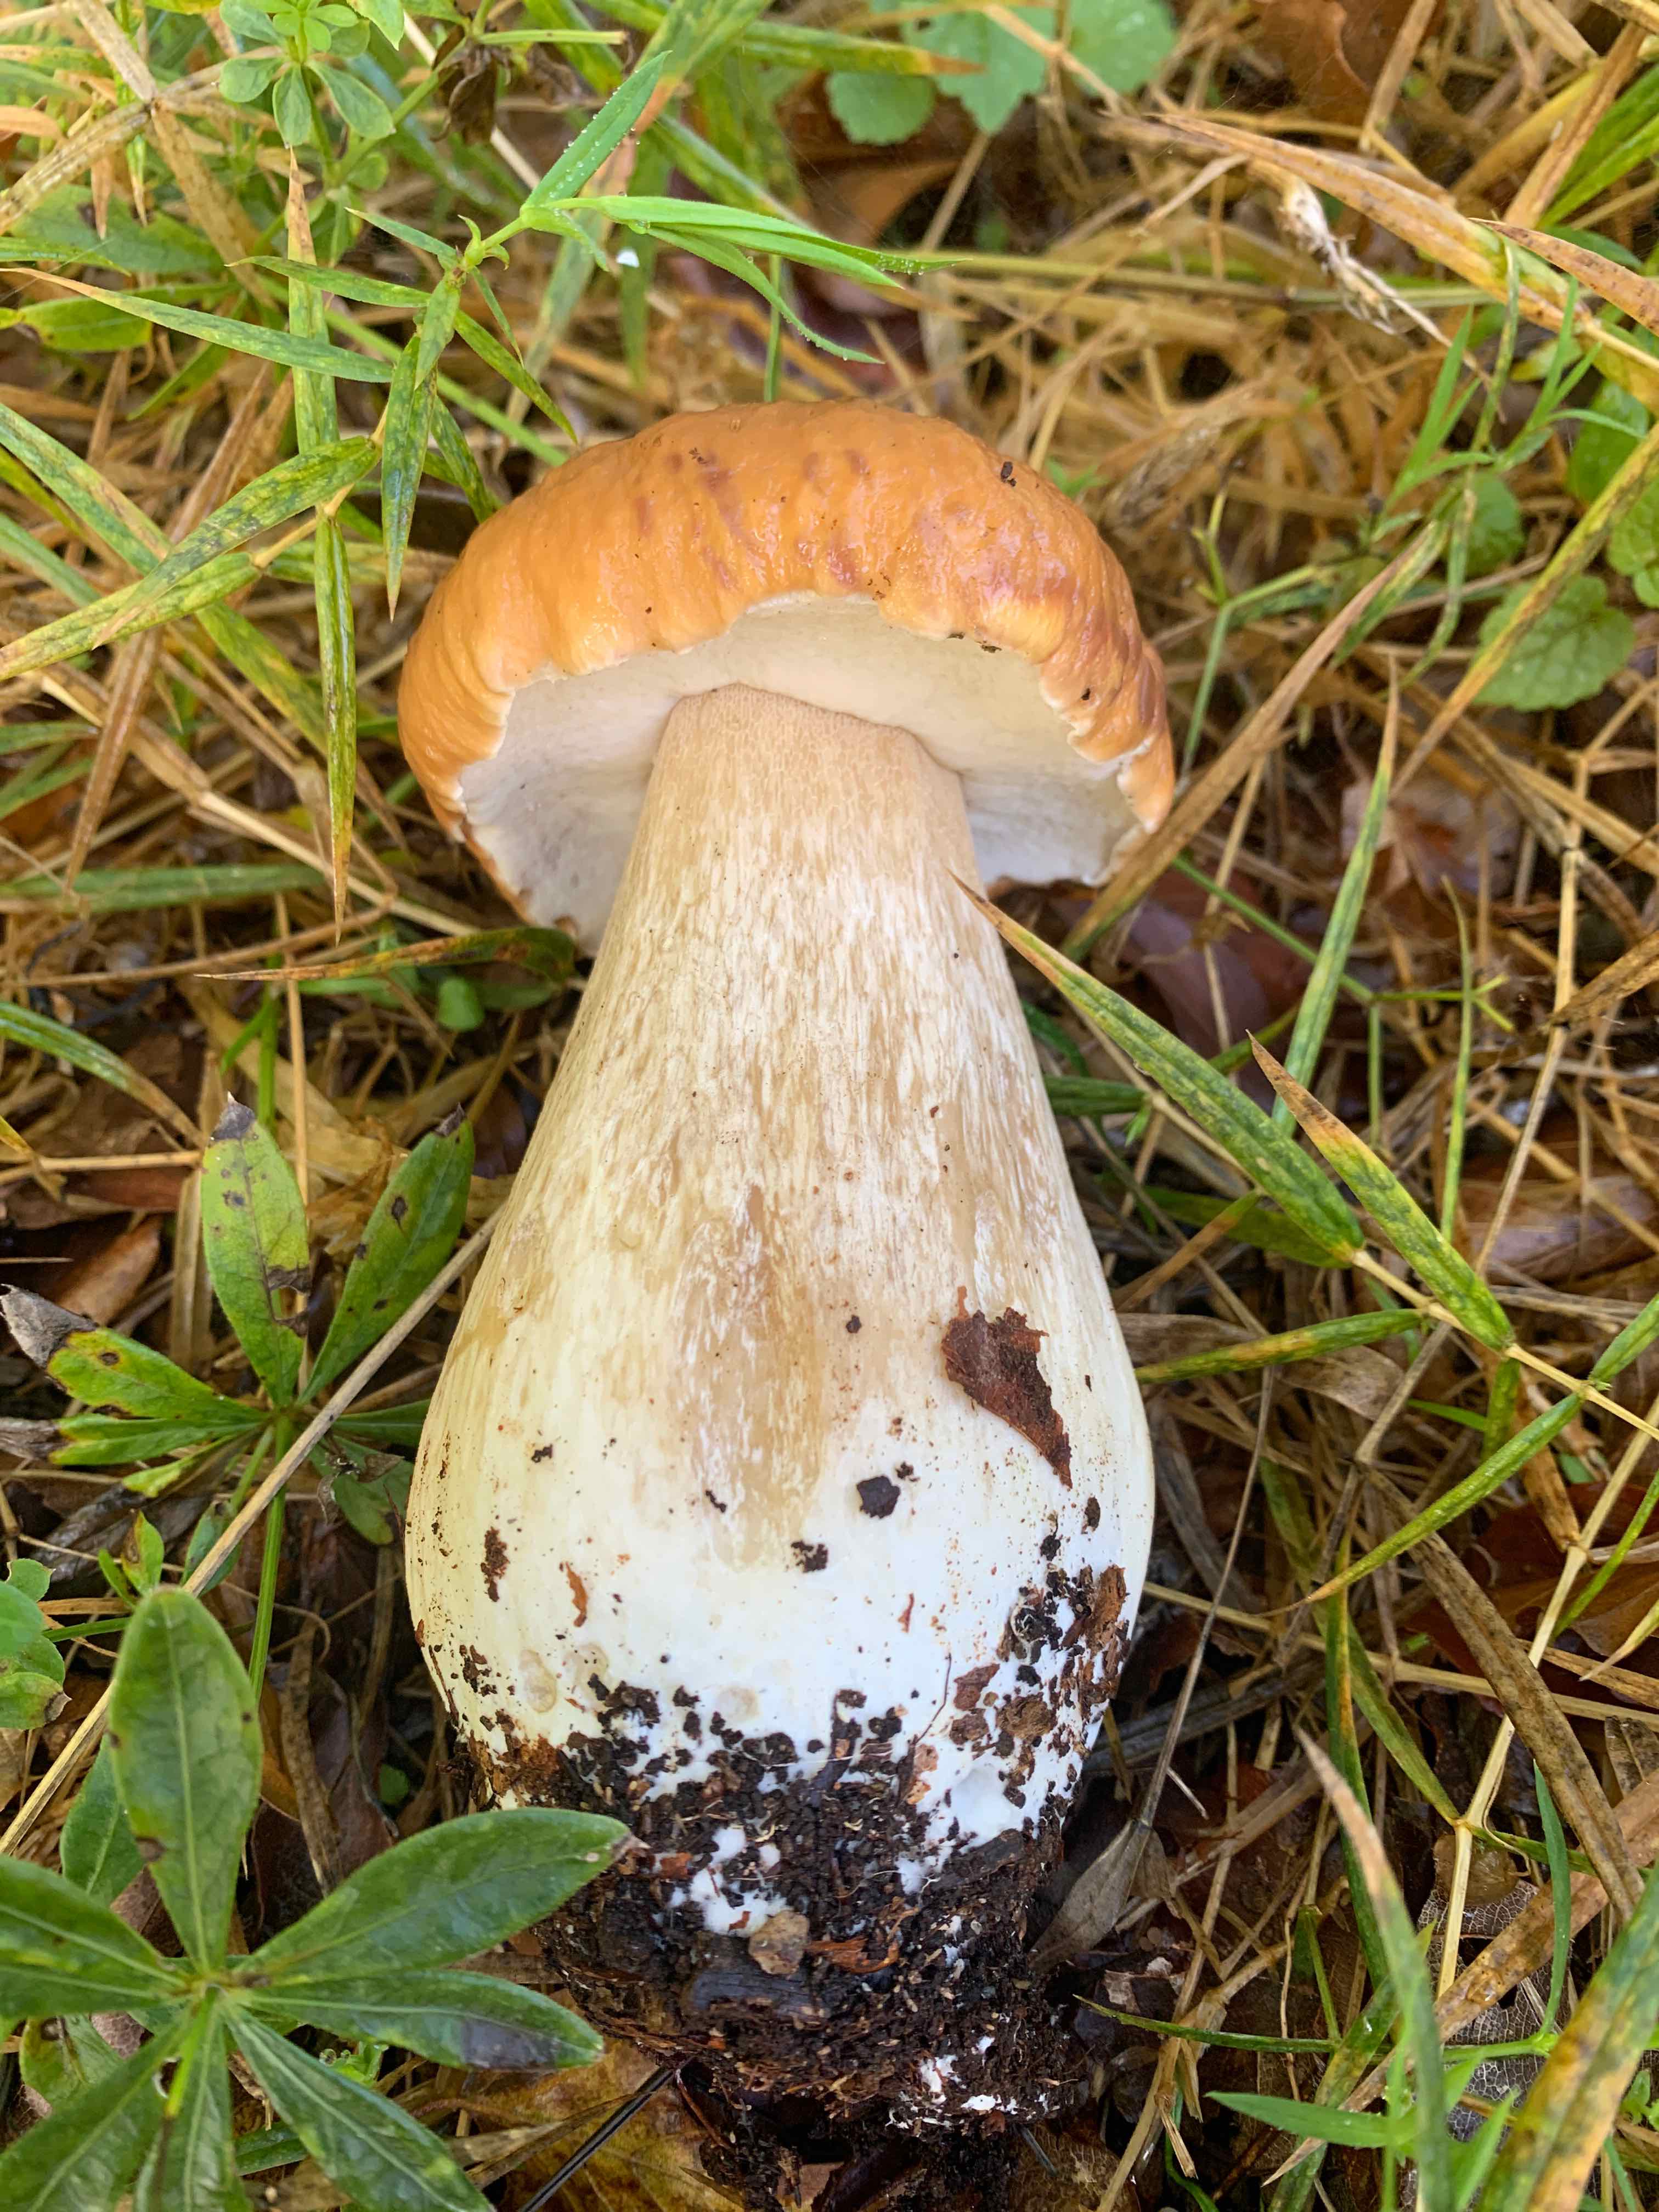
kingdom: Fungi
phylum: Basidiomycota
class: Agaricomycetes
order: Boletales
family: Boletaceae
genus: Boletus
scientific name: Boletus edulis
